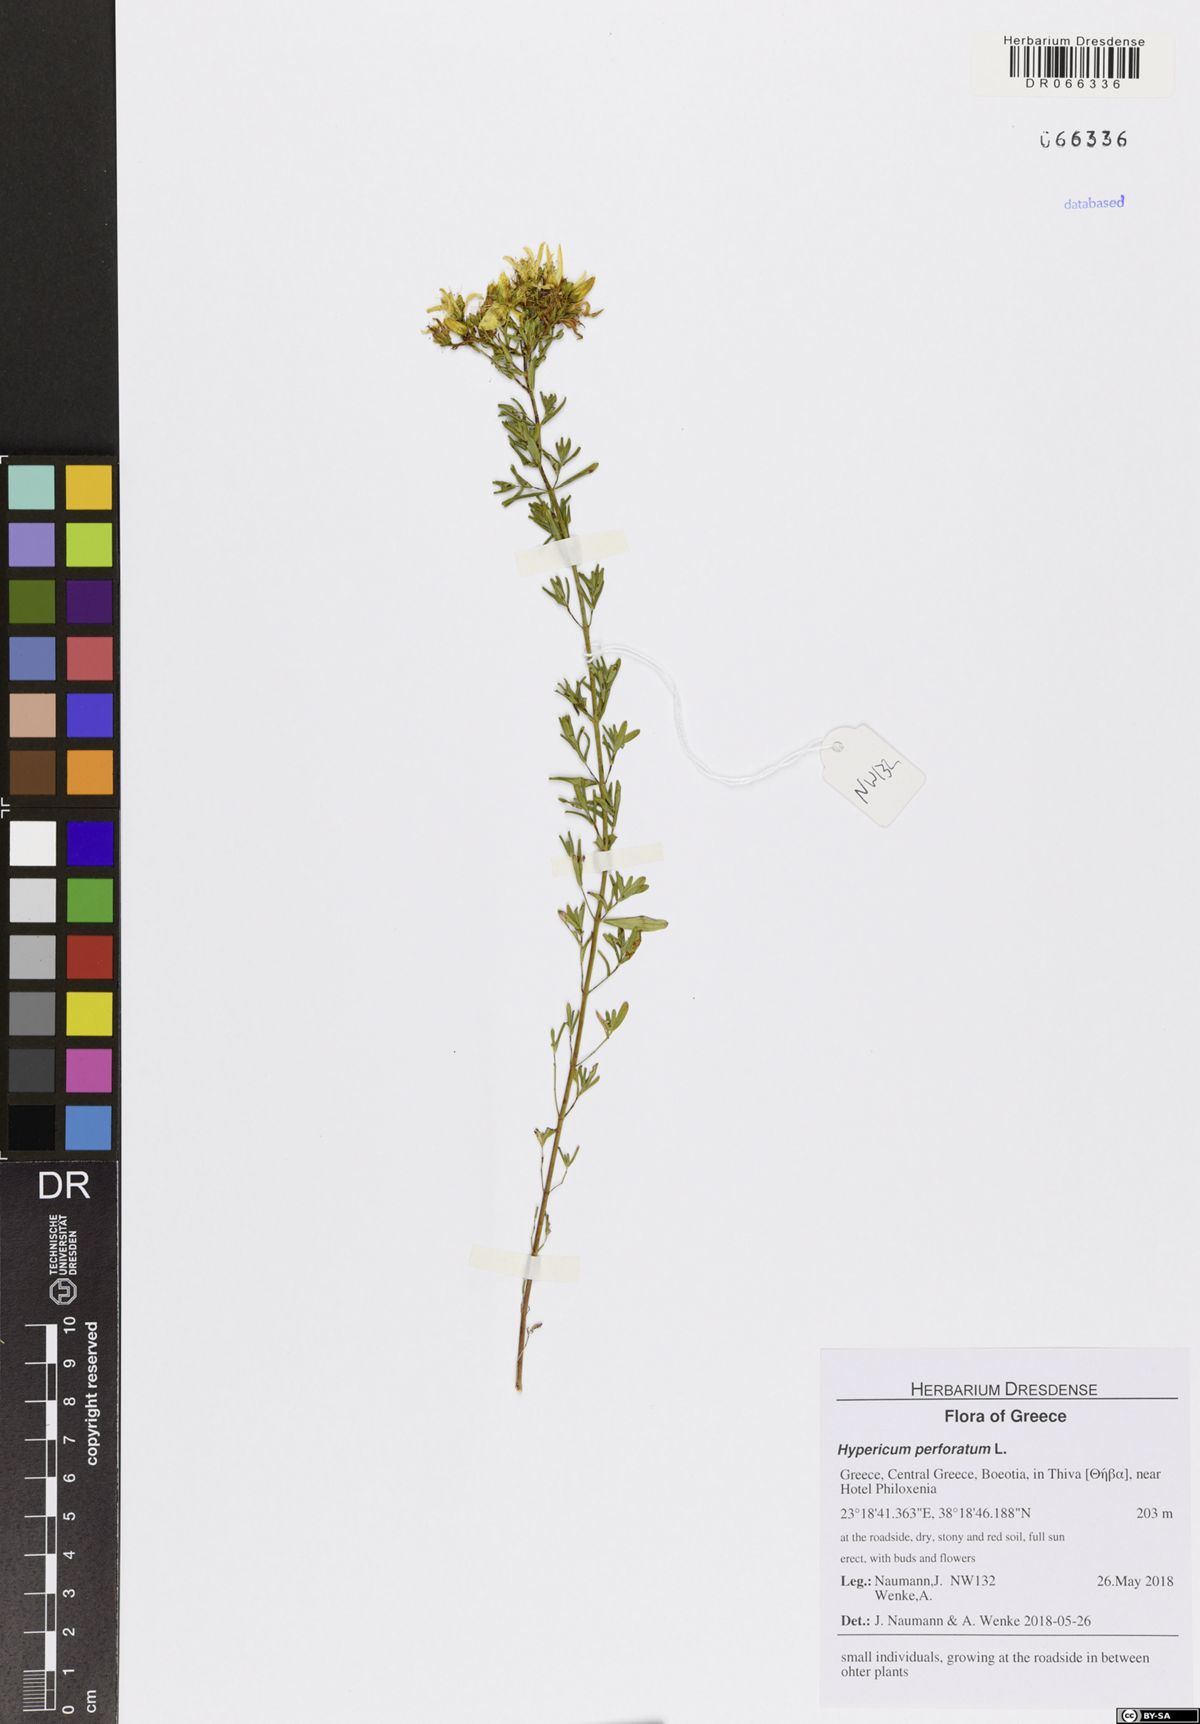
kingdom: Plantae
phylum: Tracheophyta
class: Magnoliopsida
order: Malpighiales
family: Hypericaceae
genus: Hypericum
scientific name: Hypericum perforatum
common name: Common st. johnswort
